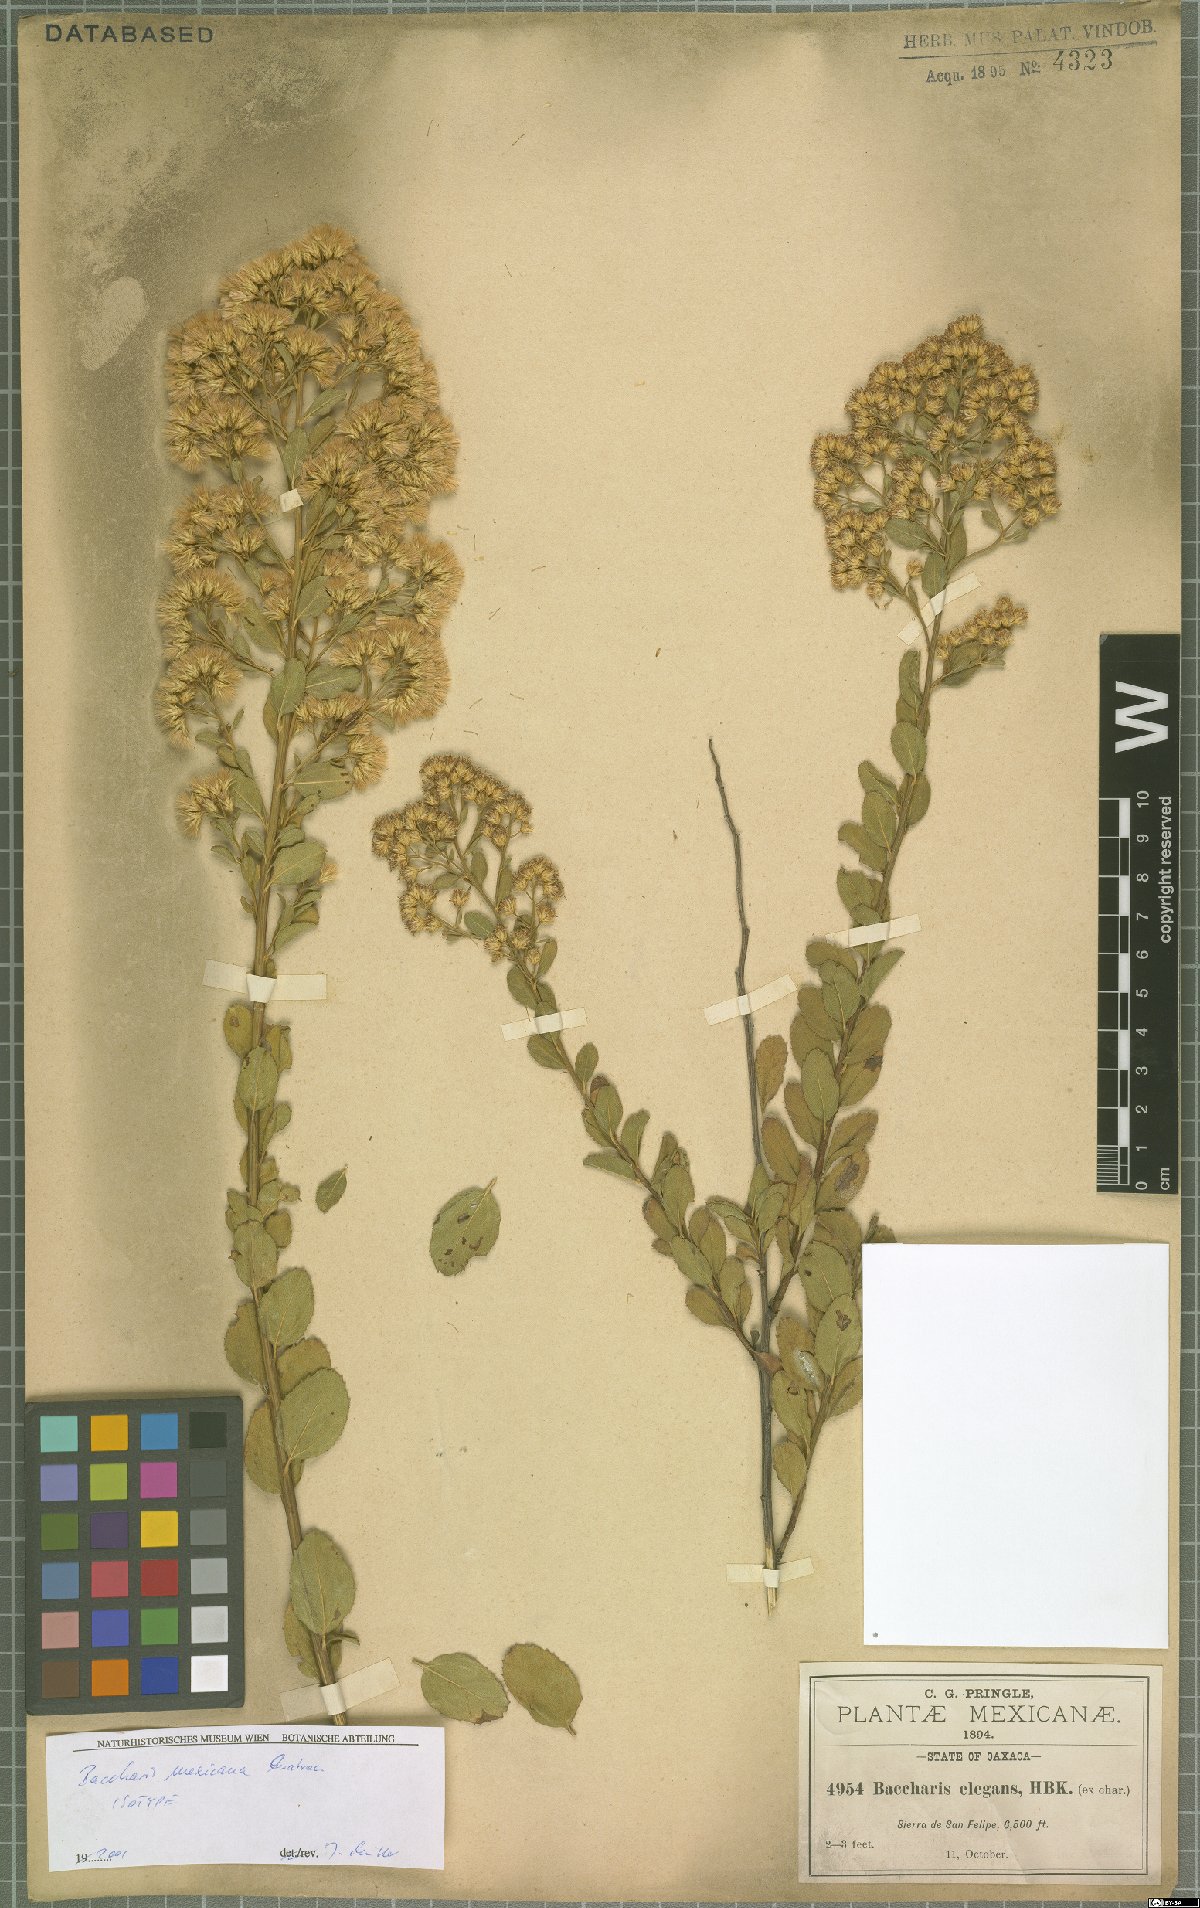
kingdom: Plantae
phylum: Tracheophyta
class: Magnoliopsida
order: Asterales
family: Asteraceae
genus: Baccharis
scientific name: Baccharis mexicana
